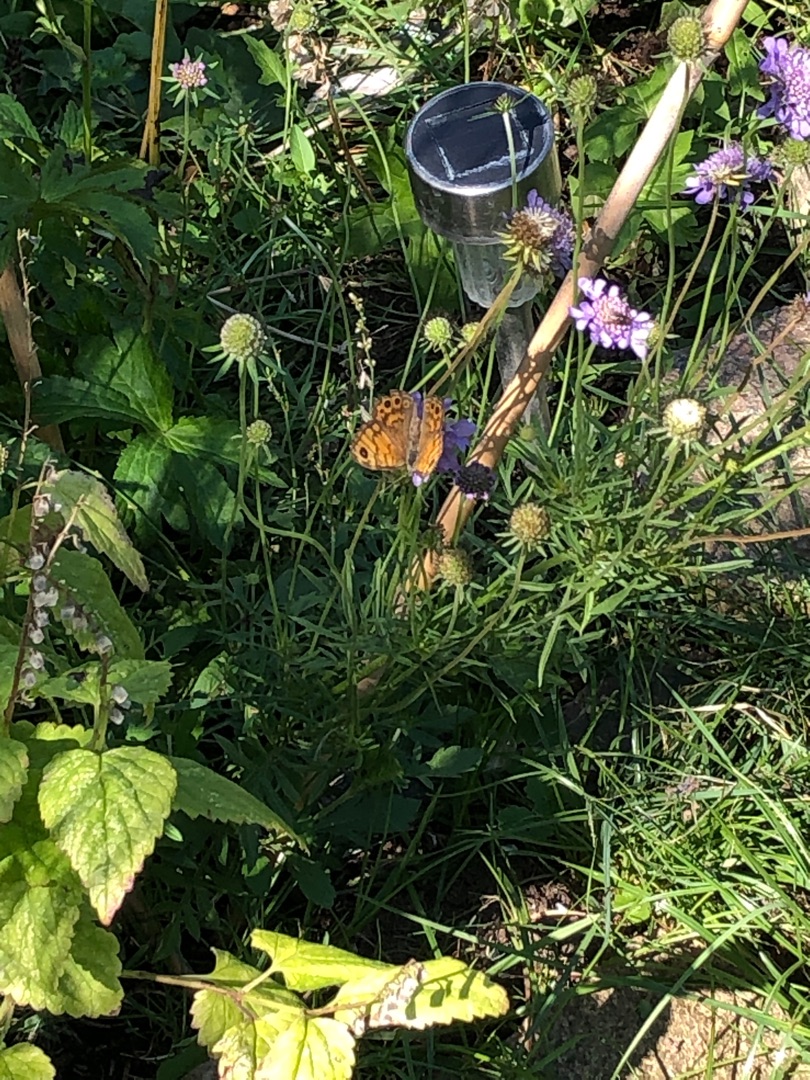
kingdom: Animalia
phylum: Arthropoda
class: Insecta
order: Lepidoptera
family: Nymphalidae
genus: Pararge
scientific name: Pararge Lasiommata megera
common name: Vejrandøje
